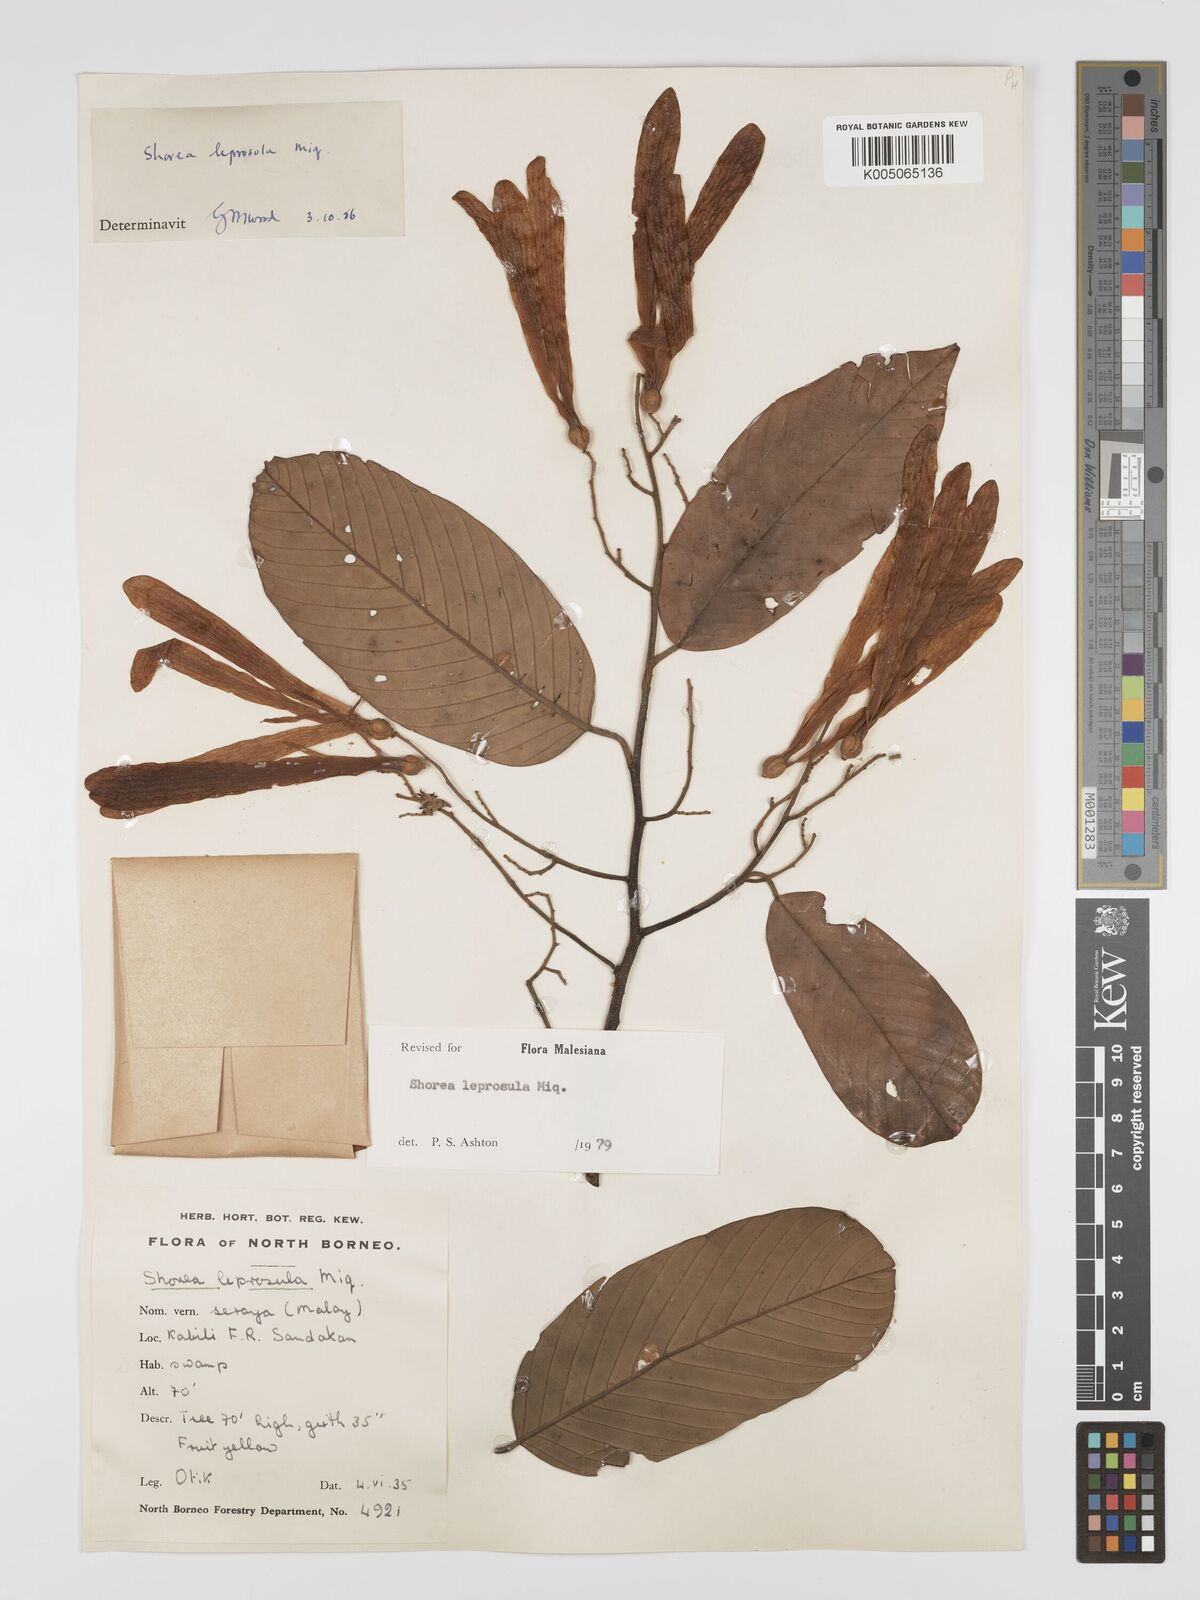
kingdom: Plantae
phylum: Tracheophyta
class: Magnoliopsida
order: Malvales
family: Dipterocarpaceae
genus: Shorea
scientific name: Shorea leprosula
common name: Light red meranti
